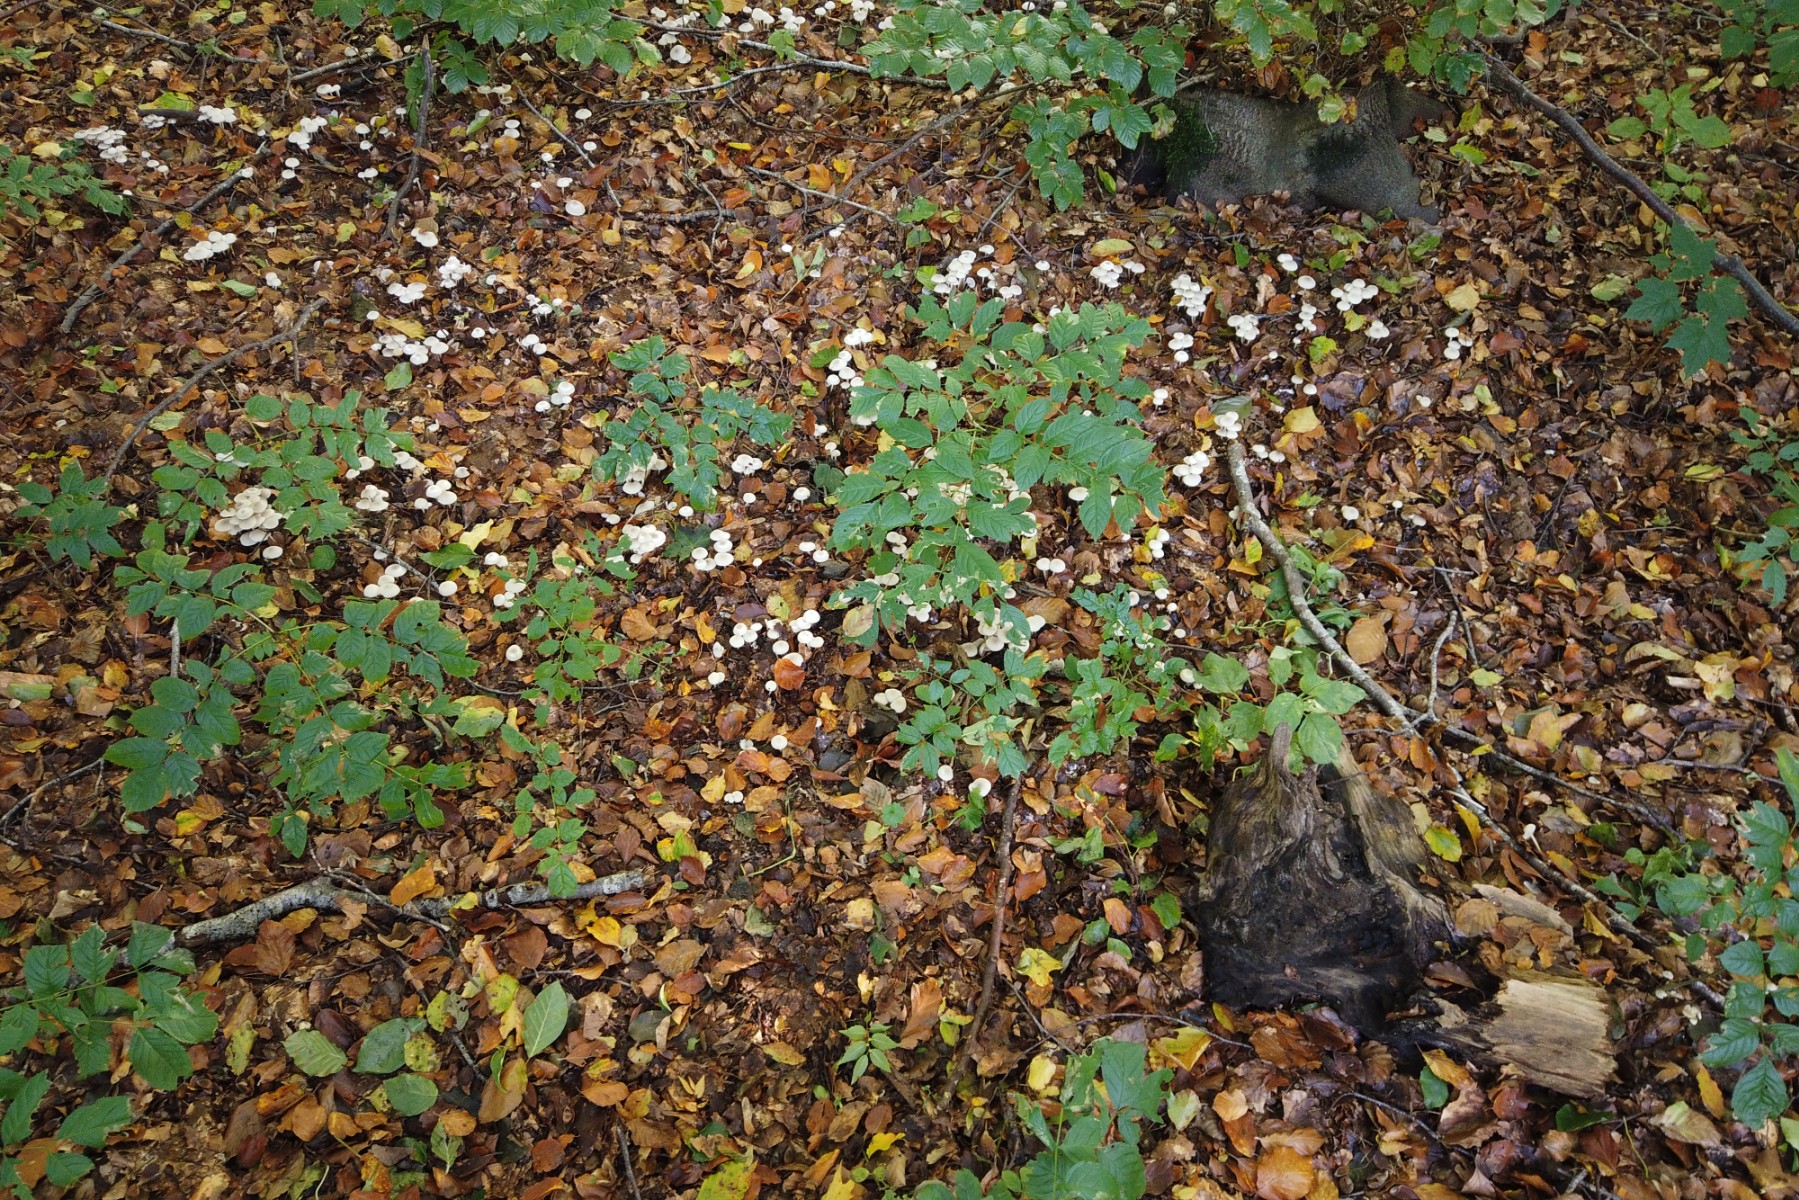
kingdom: Fungi
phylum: Basidiomycota
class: Agaricomycetes
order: Agaricales
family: Marasmiaceae
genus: Marasmius
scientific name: Marasmius wynneae
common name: hvælvet bruskhat
